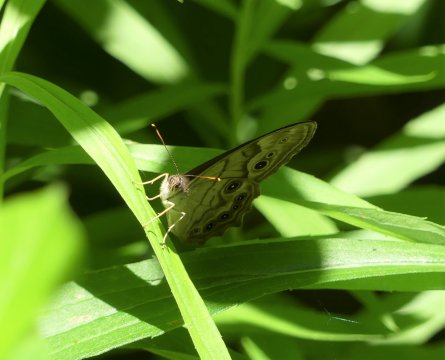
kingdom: Animalia
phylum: Arthropoda
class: Insecta
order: Lepidoptera
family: Nymphalidae
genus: Lethe
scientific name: Lethe anthedon
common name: Northern Pearly-Eye
